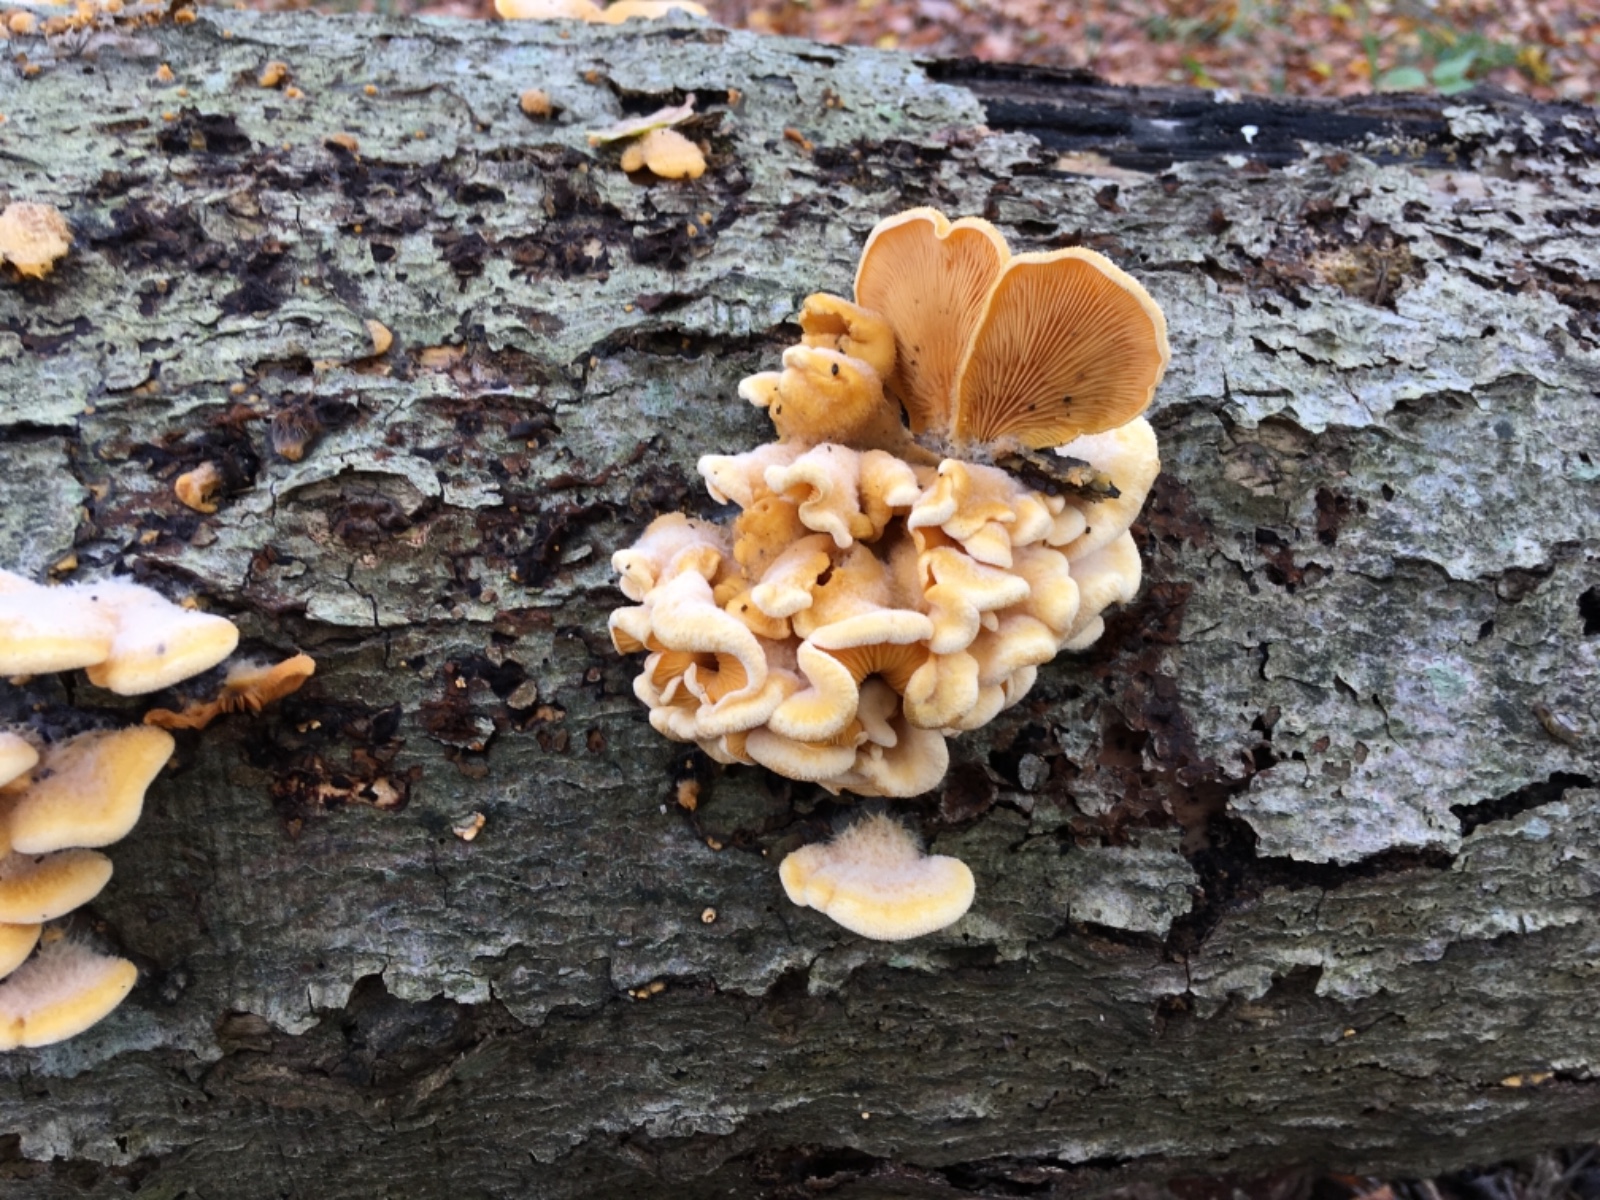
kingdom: Fungi
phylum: Basidiomycota
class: Agaricomycetes
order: Agaricales
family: Phyllotopsidaceae
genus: Phyllotopsis
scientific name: Phyllotopsis nidulans
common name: okkerblad
